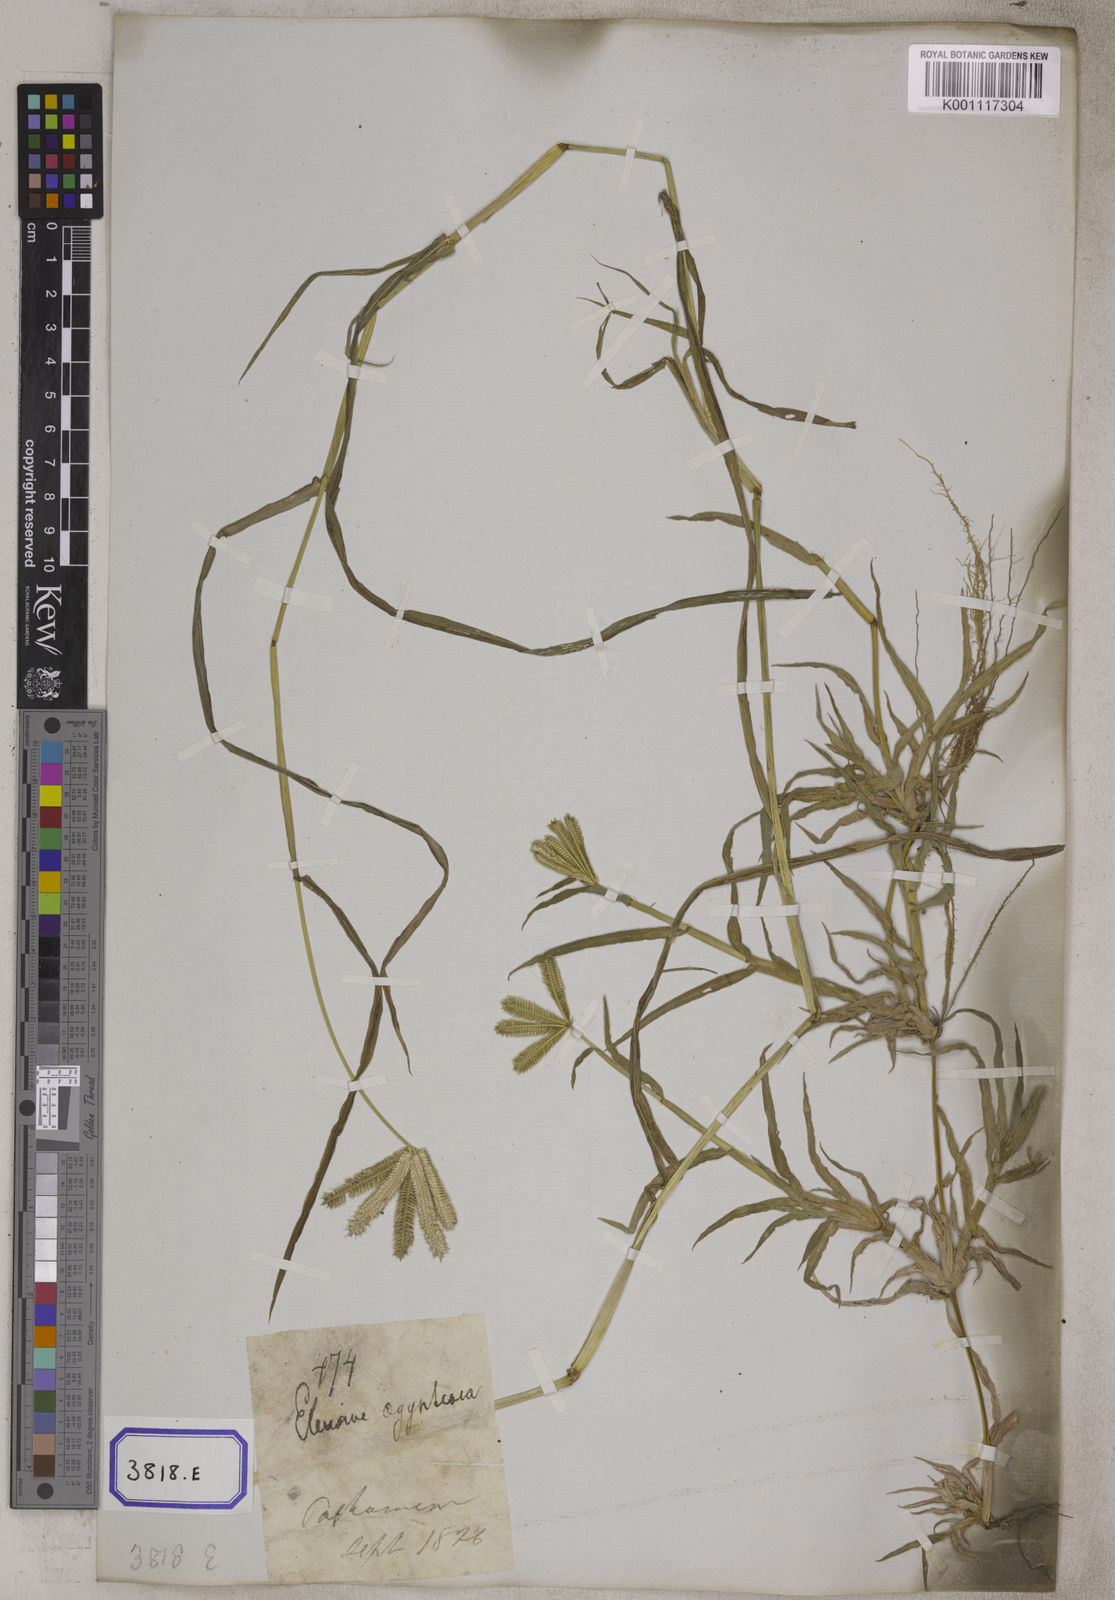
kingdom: Plantae
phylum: Tracheophyta
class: Liliopsida
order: Poales
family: Poaceae
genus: Eleusine
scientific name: Eleusine
